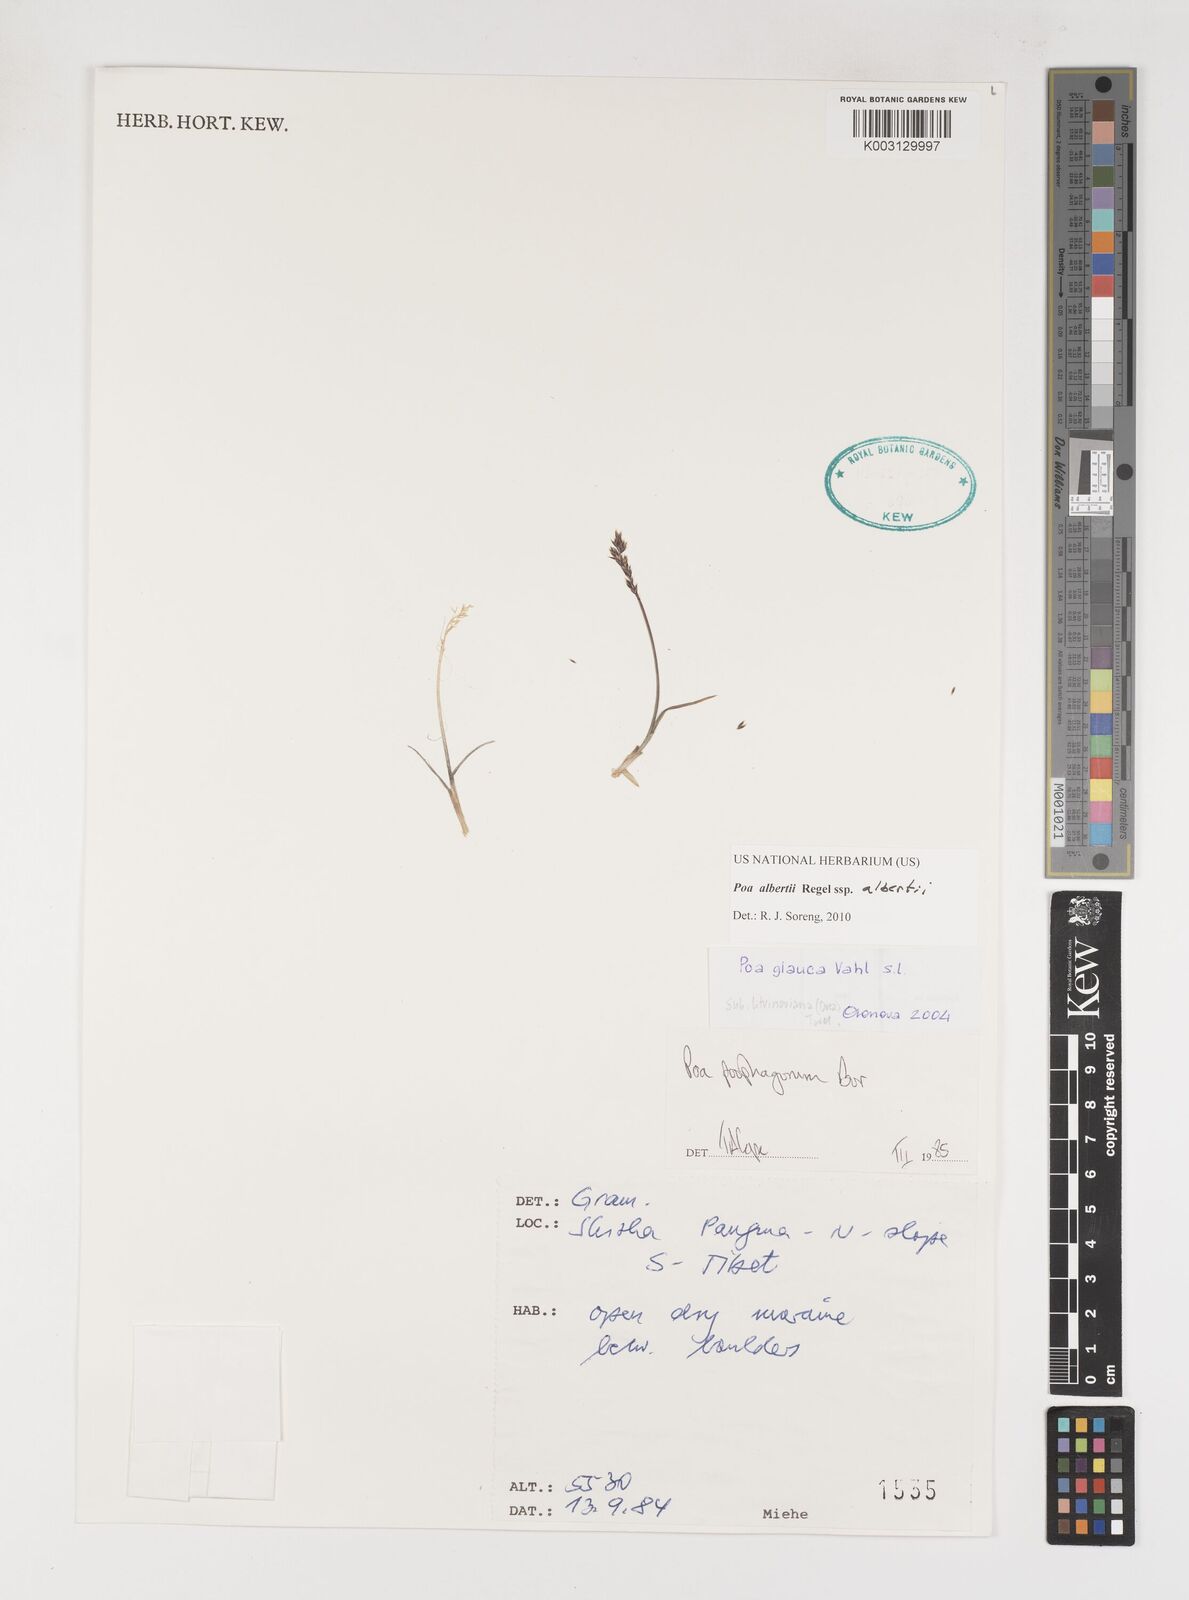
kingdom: Plantae
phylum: Tracheophyta
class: Liliopsida
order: Poales
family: Poaceae
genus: Poa
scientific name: Poa alberti
